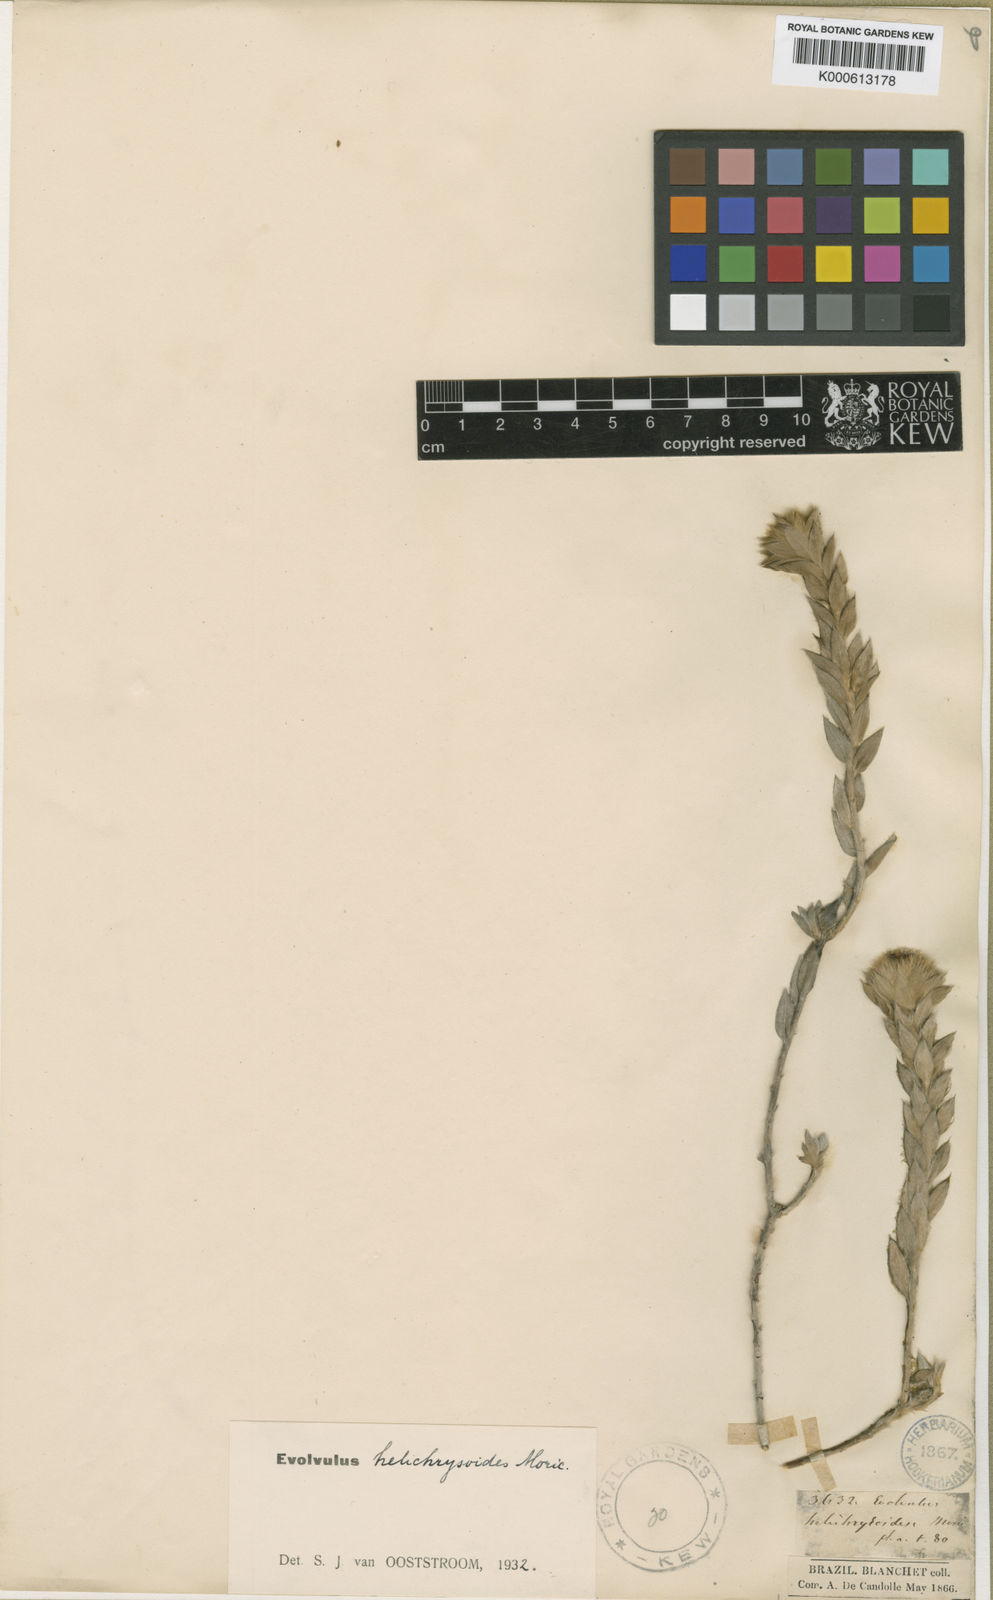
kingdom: Plantae
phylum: Tracheophyta
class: Magnoliopsida
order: Solanales
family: Convolvulaceae
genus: Evolvulus
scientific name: Evolvulus helichrysoides
